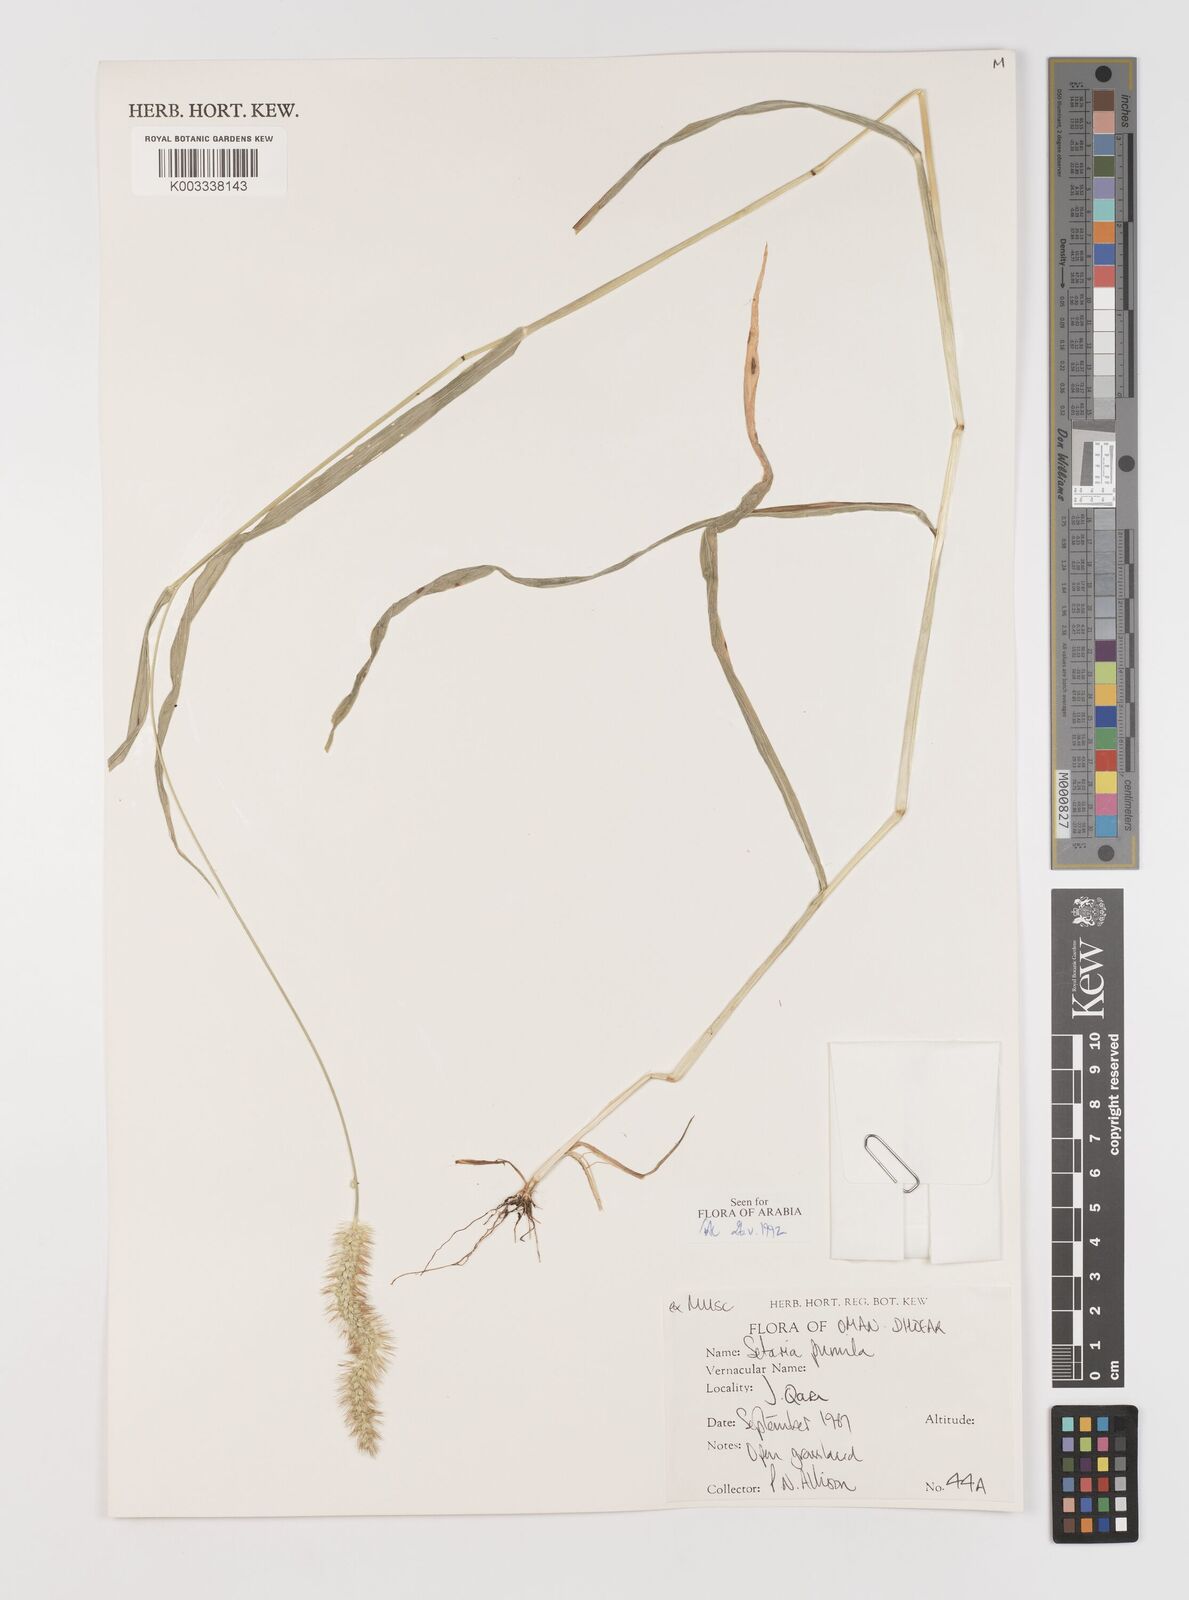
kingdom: Plantae
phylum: Tracheophyta
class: Liliopsida
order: Poales
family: Poaceae
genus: Setaria
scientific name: Setaria pumila
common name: Yellow bristle-grass
